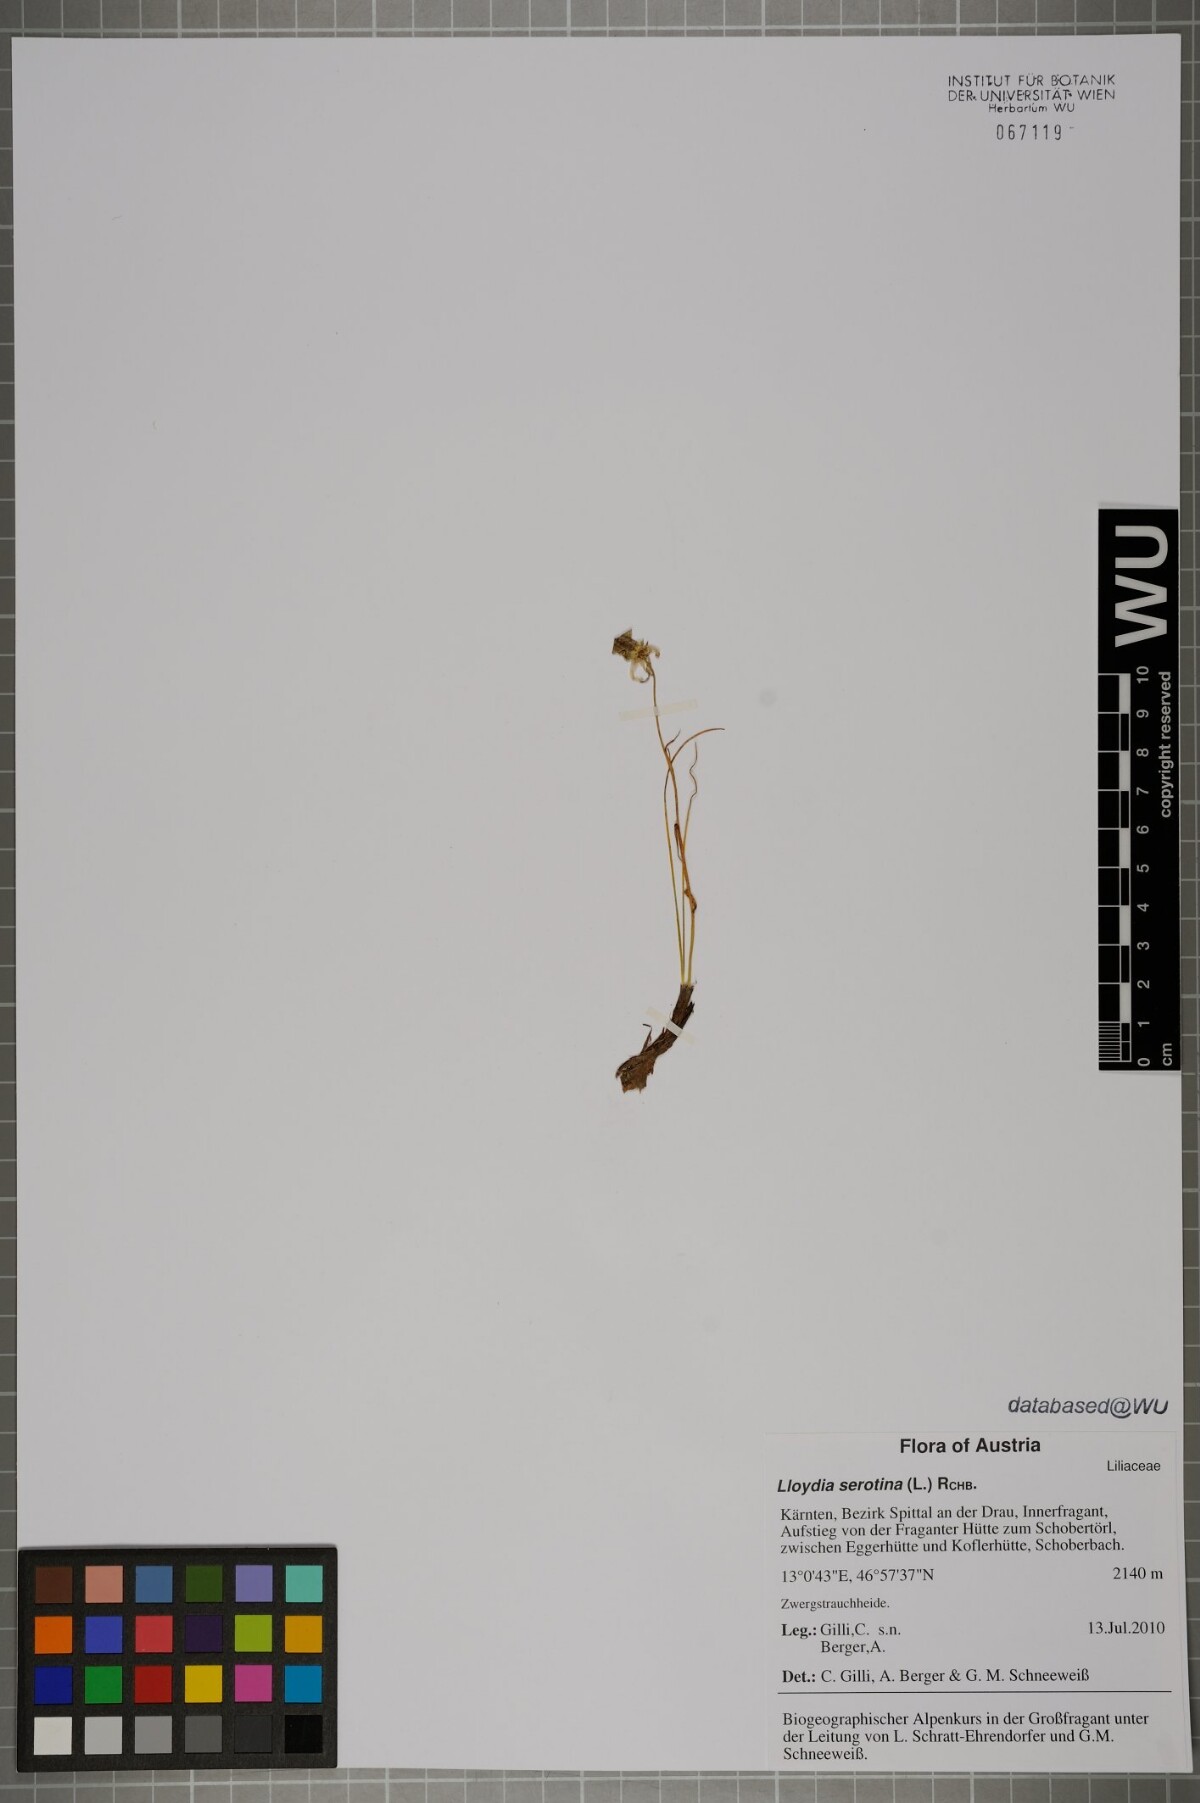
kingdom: Plantae
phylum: Tracheophyta
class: Liliopsida
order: Liliales
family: Liliaceae
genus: Gagea
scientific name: Gagea serotina
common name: Snowdon lily
